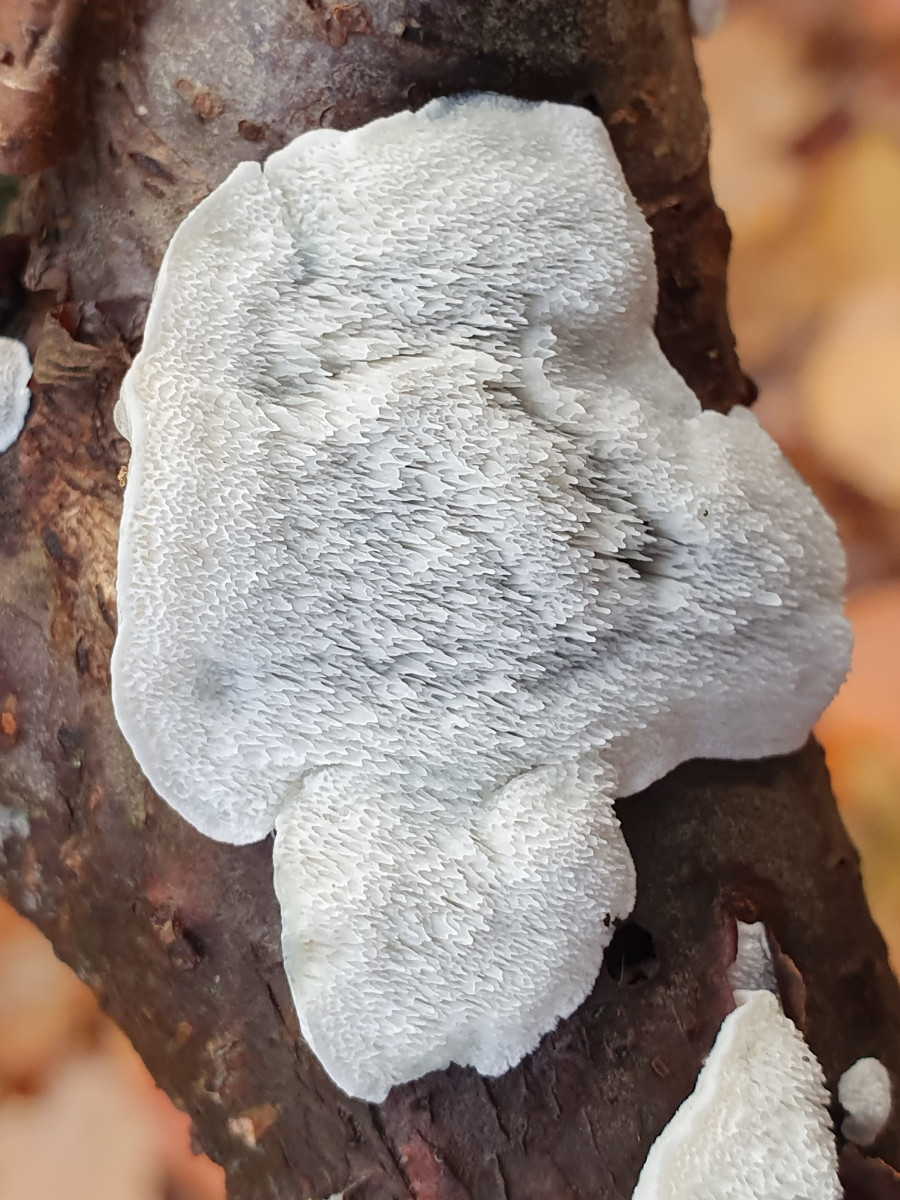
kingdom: Fungi
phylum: Basidiomycota
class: Agaricomycetes
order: Polyporales
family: Polyporaceae
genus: Cyanosporus
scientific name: Cyanosporus alni
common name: blegblå kødporesvamp
